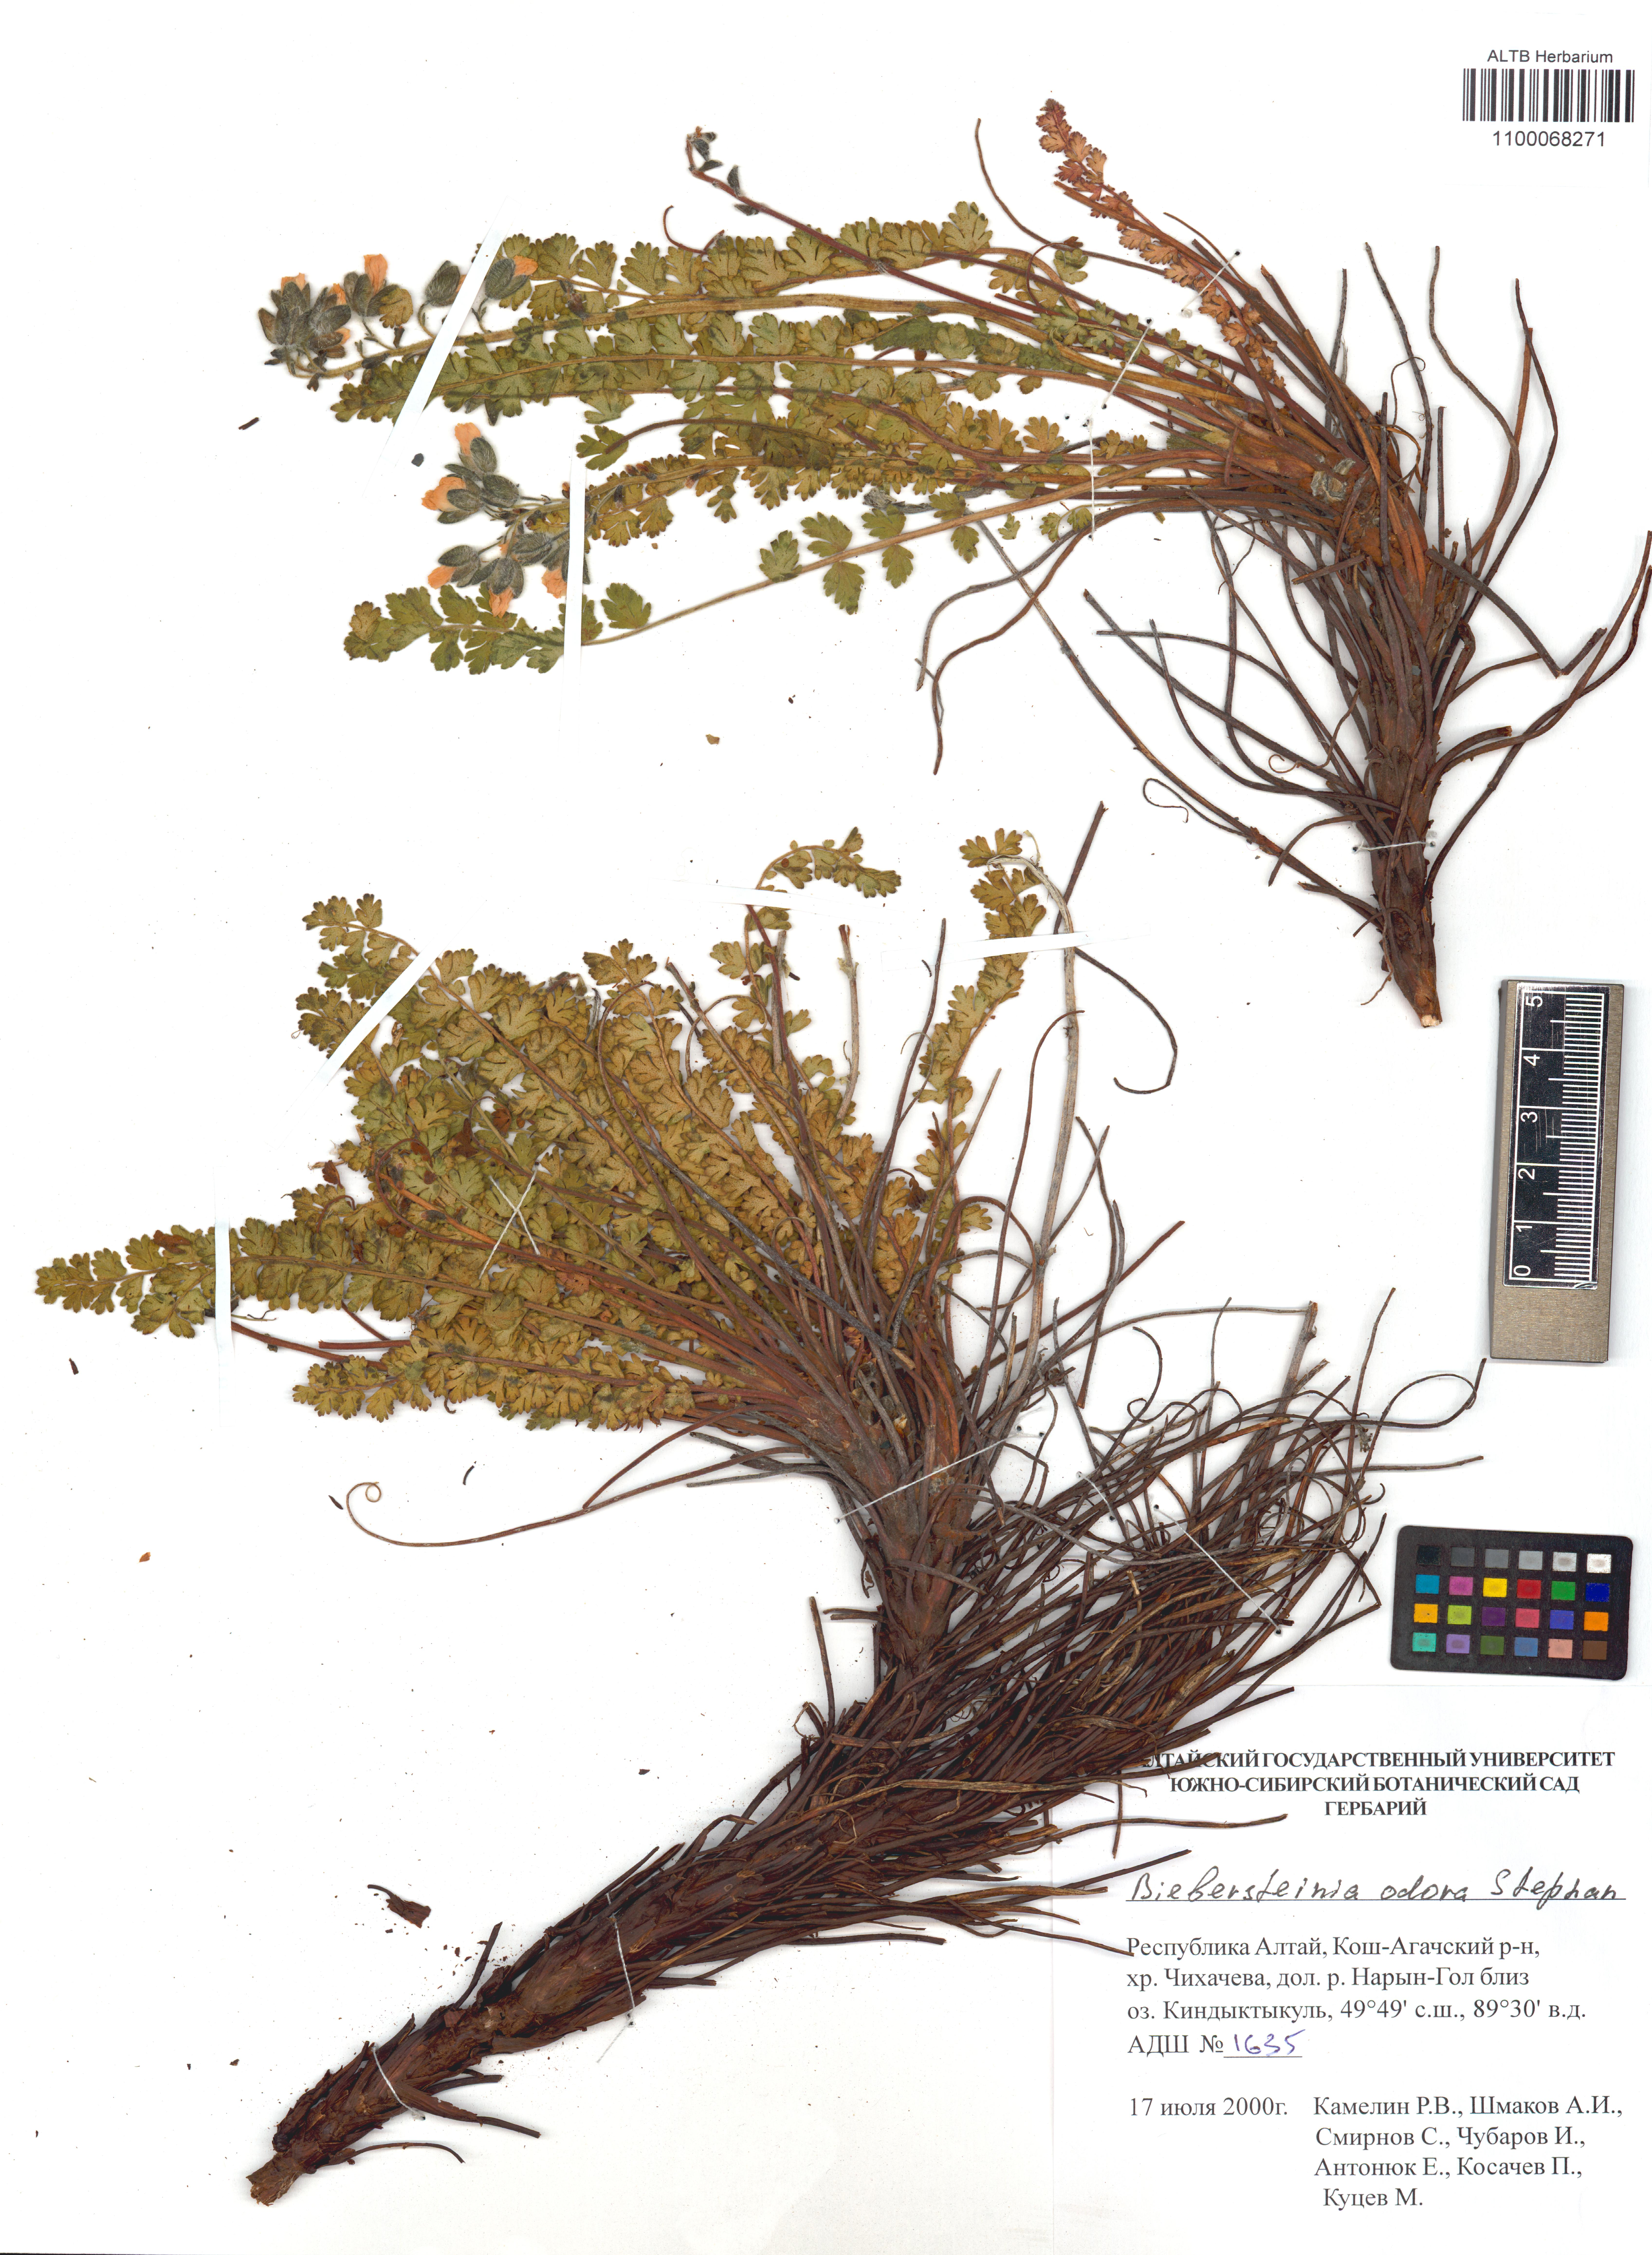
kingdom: Plantae
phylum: Tracheophyta
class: Magnoliopsida
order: Sapindales
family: Biebersteiniaceae
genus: Biebersteinia
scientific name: Biebersteinia odora
